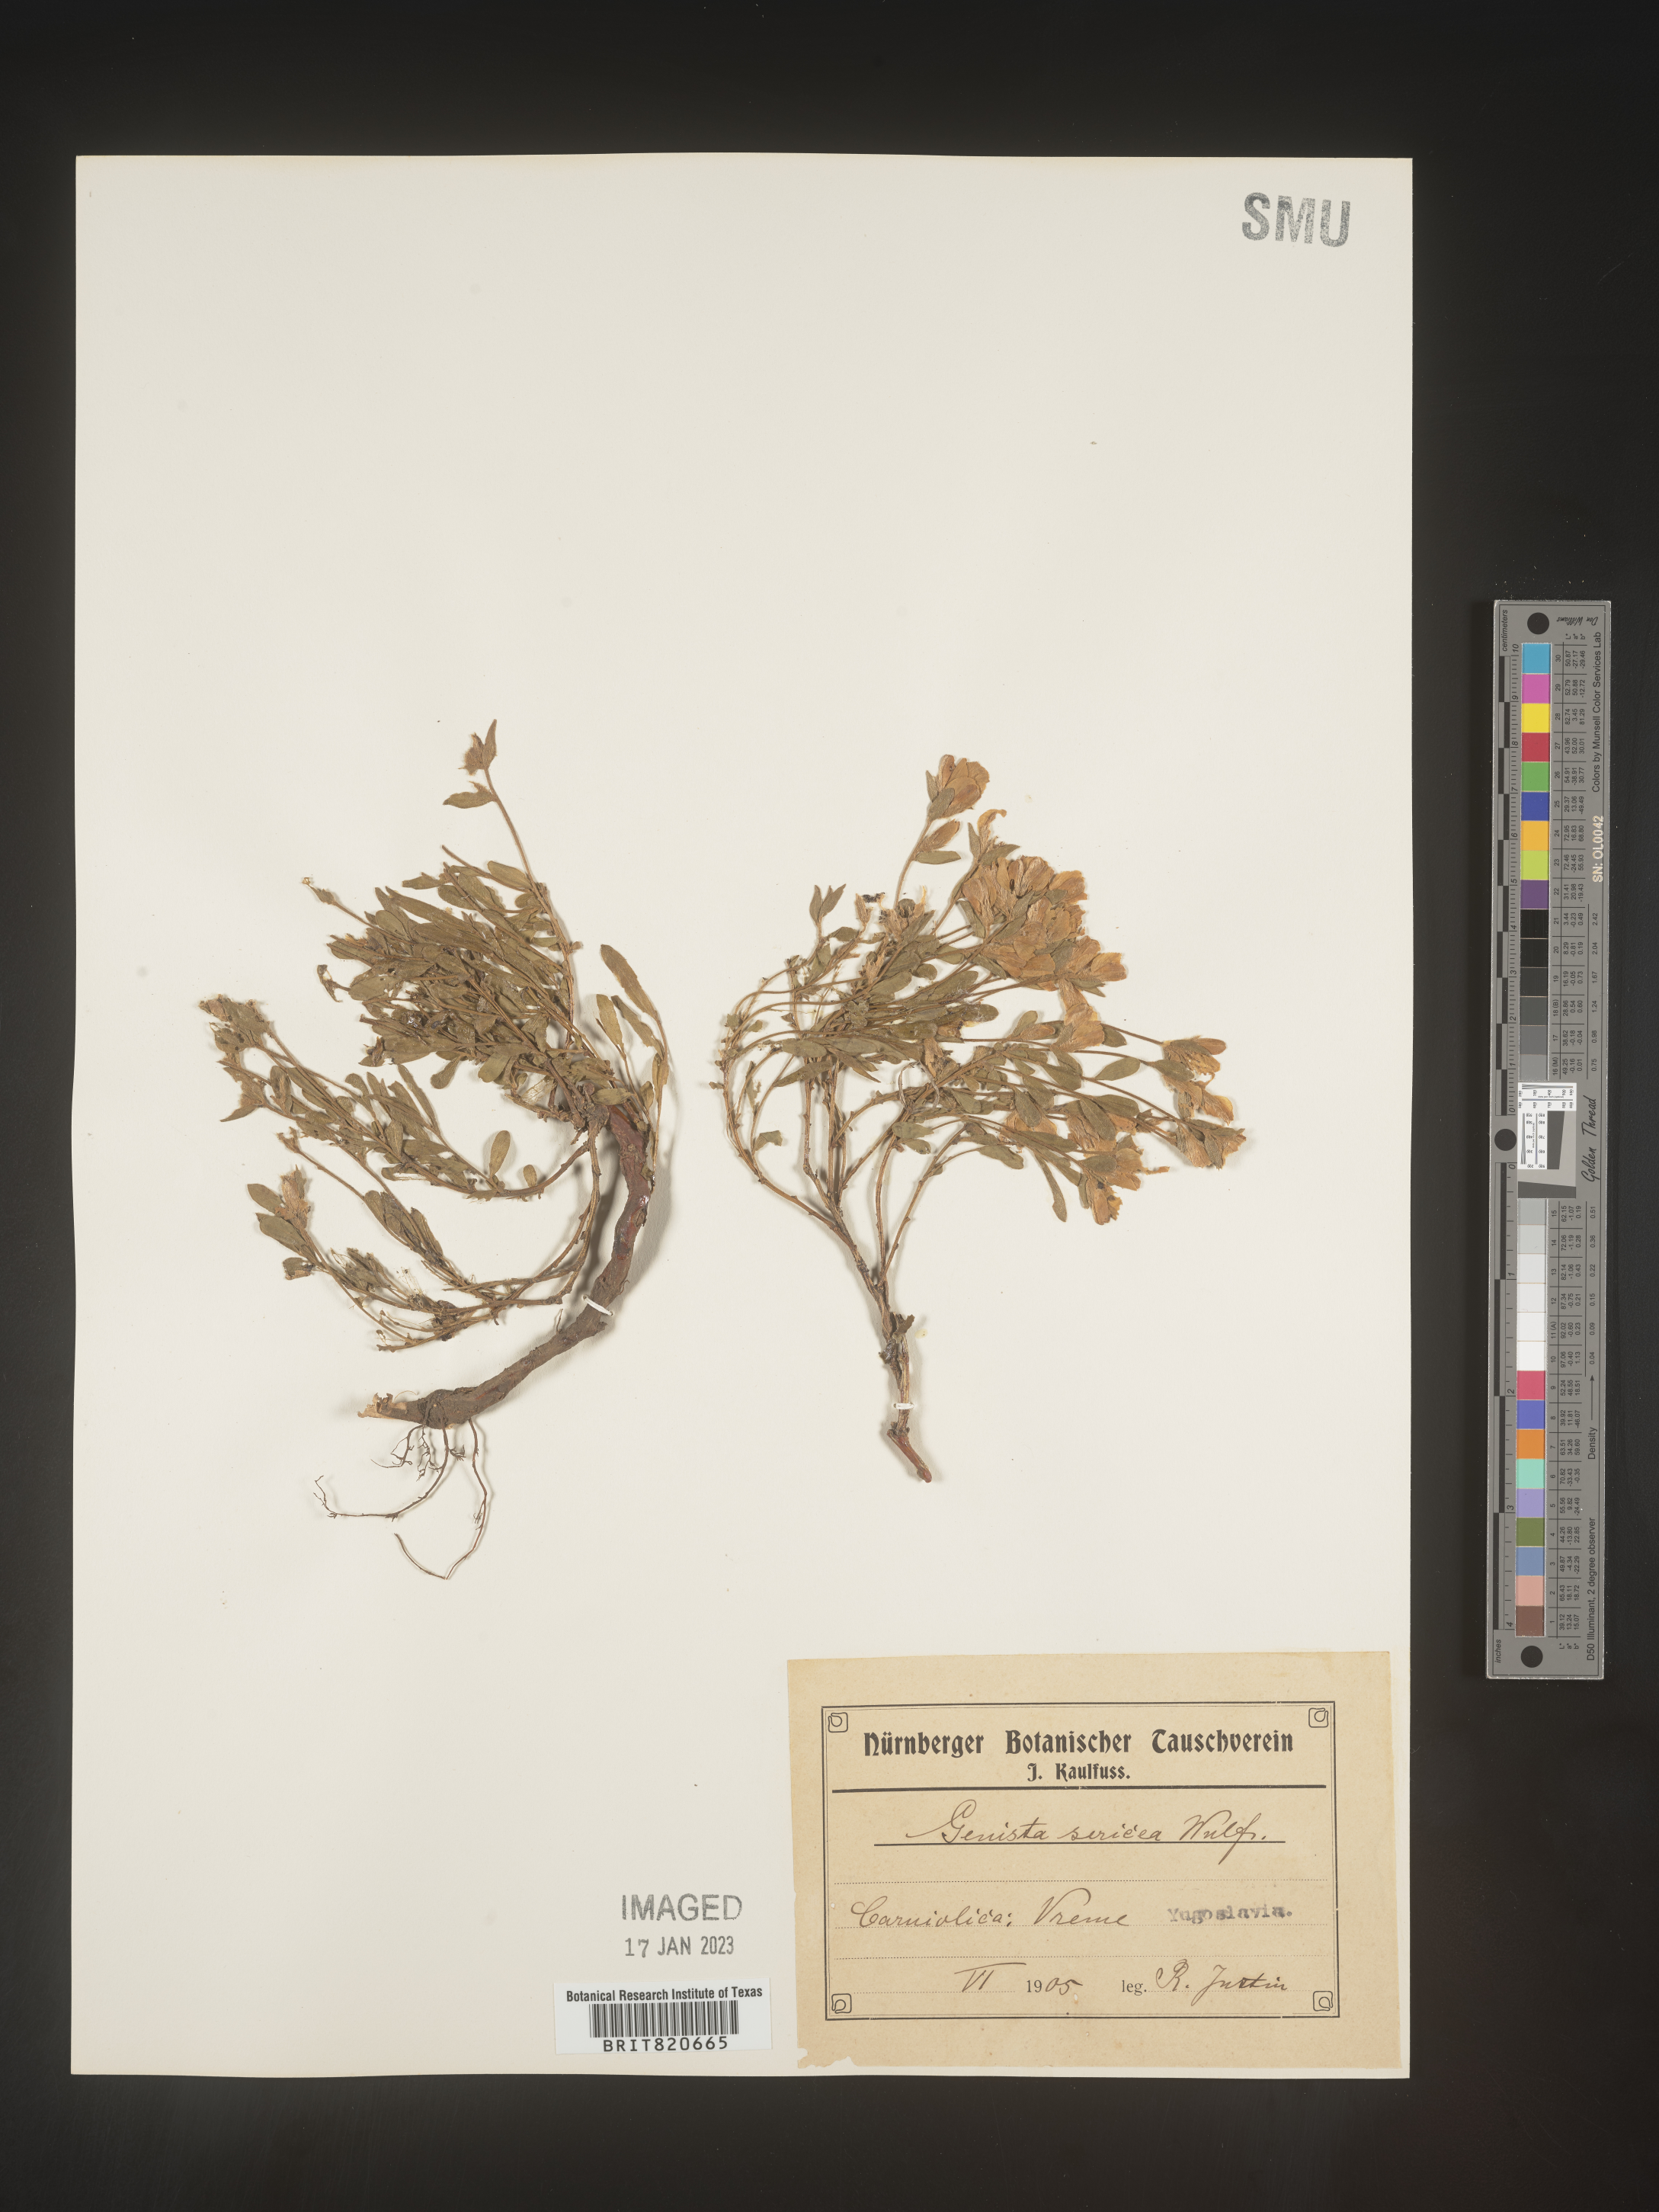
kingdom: Plantae
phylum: Tracheophyta
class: Magnoliopsida
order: Fabales
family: Fabaceae
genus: Genista
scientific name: Genista
